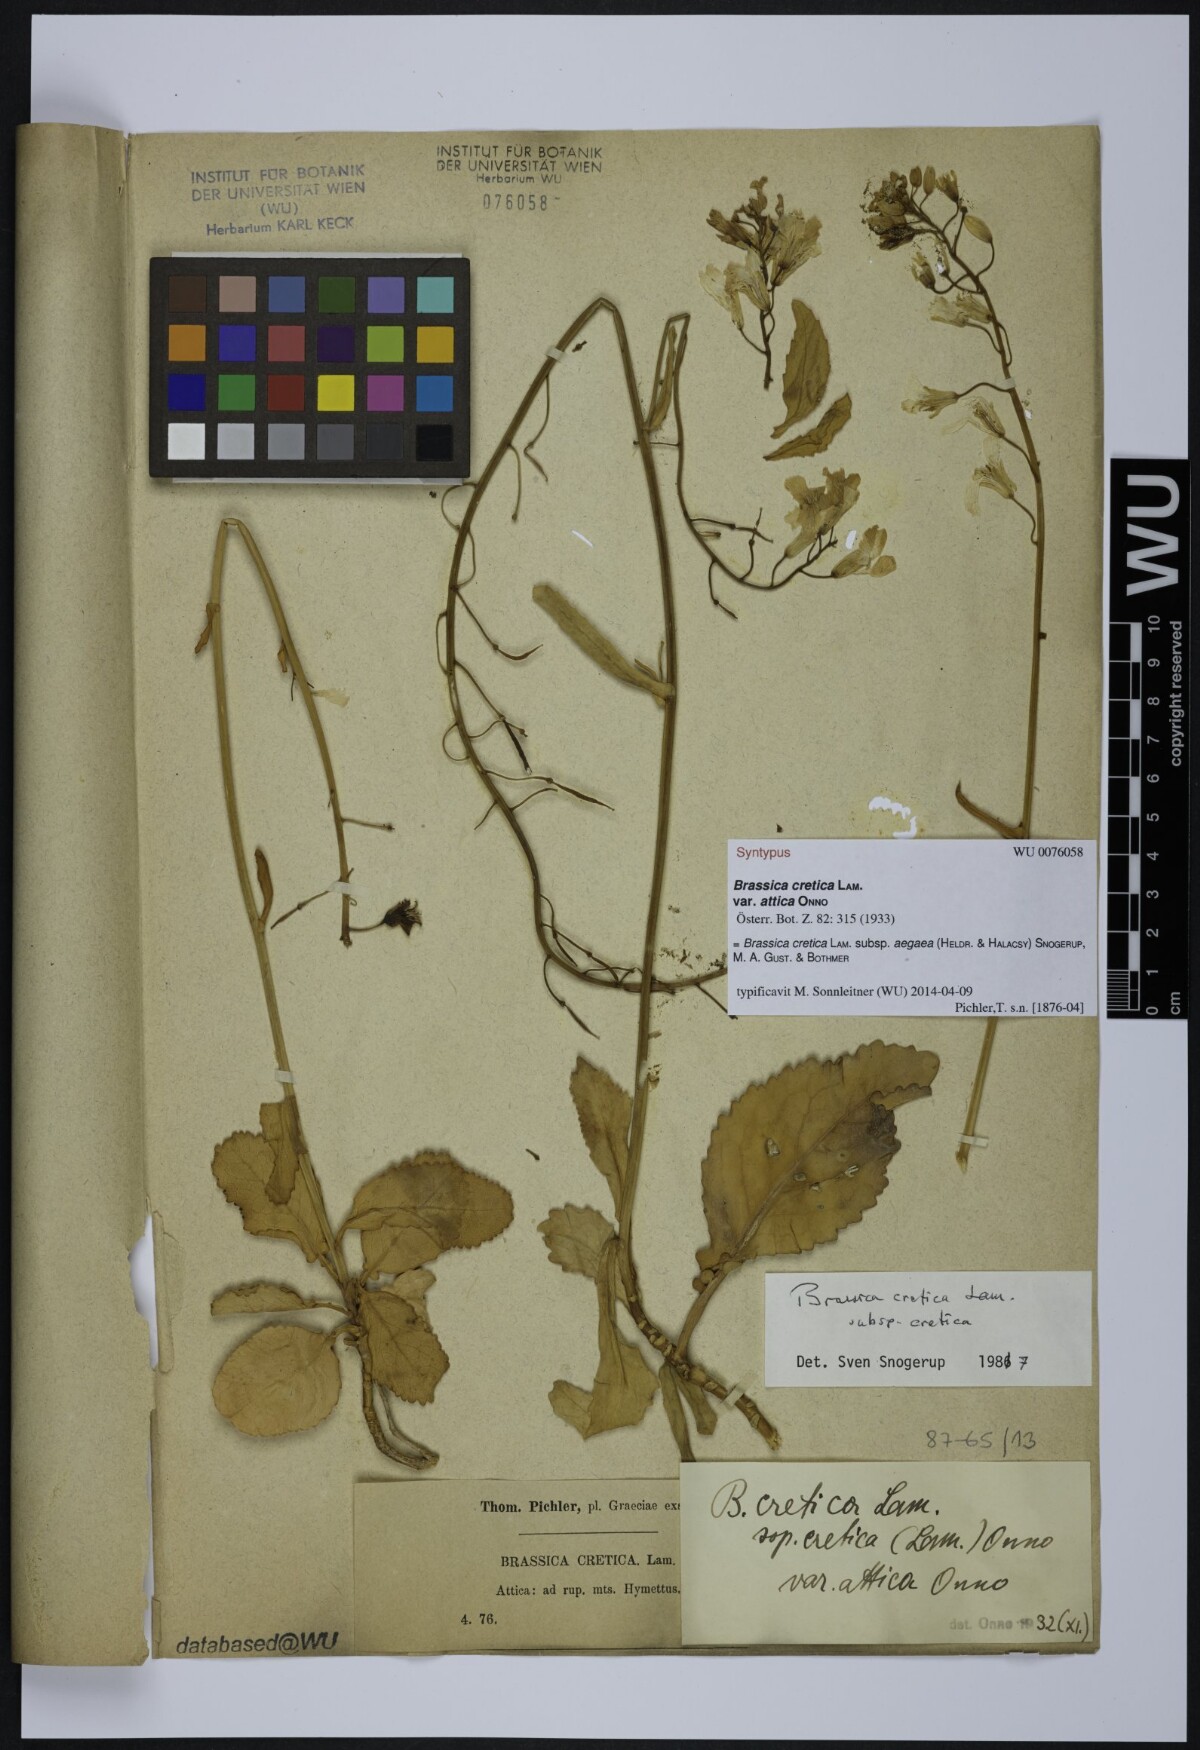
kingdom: Plantae
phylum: Tracheophyta
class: Magnoliopsida
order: Brassicales
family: Brassicaceae
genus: Brassica
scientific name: Brassica cretica
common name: Mustard
